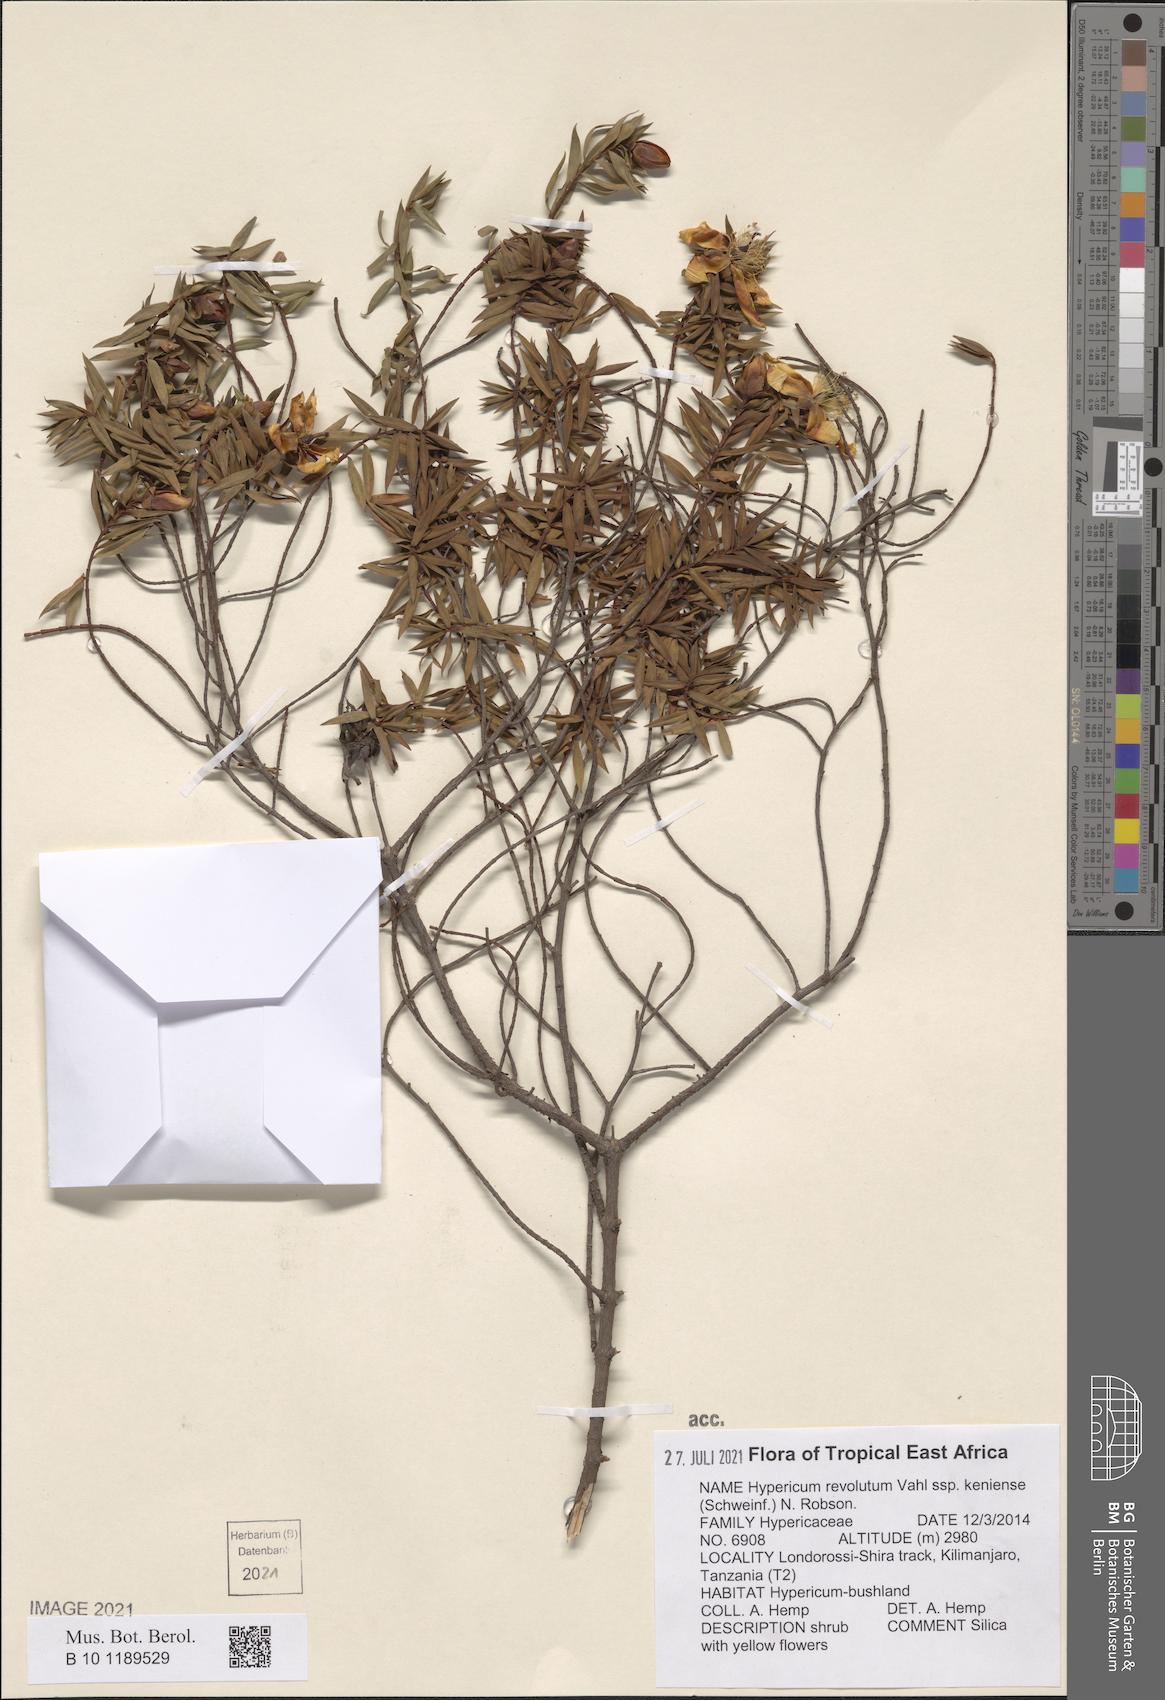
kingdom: Plantae
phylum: Tracheophyta
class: Magnoliopsida
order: Malpighiales
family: Hypericaceae
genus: Hypericum
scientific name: Hypericum revolutum
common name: Curry bush
